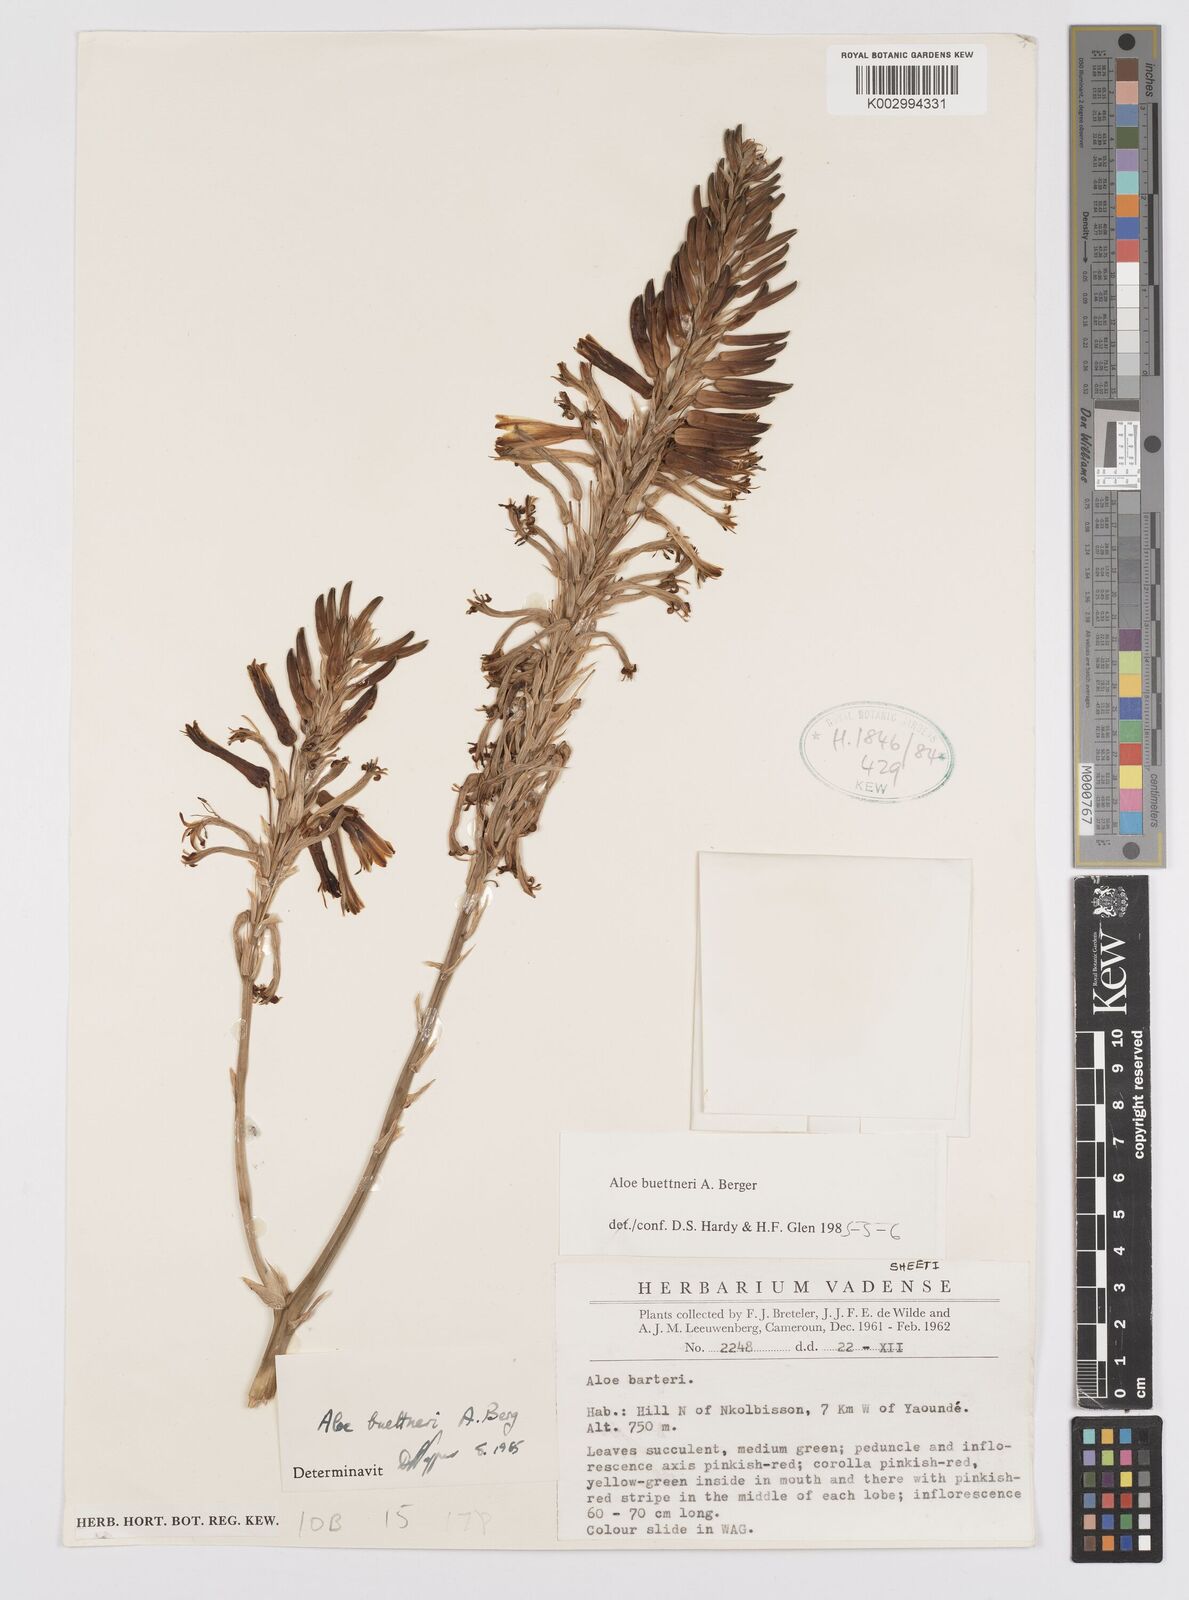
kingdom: Plantae
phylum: Tracheophyta
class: Liliopsida
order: Asparagales
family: Asphodelaceae
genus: Aloe
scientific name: Aloe seretii
